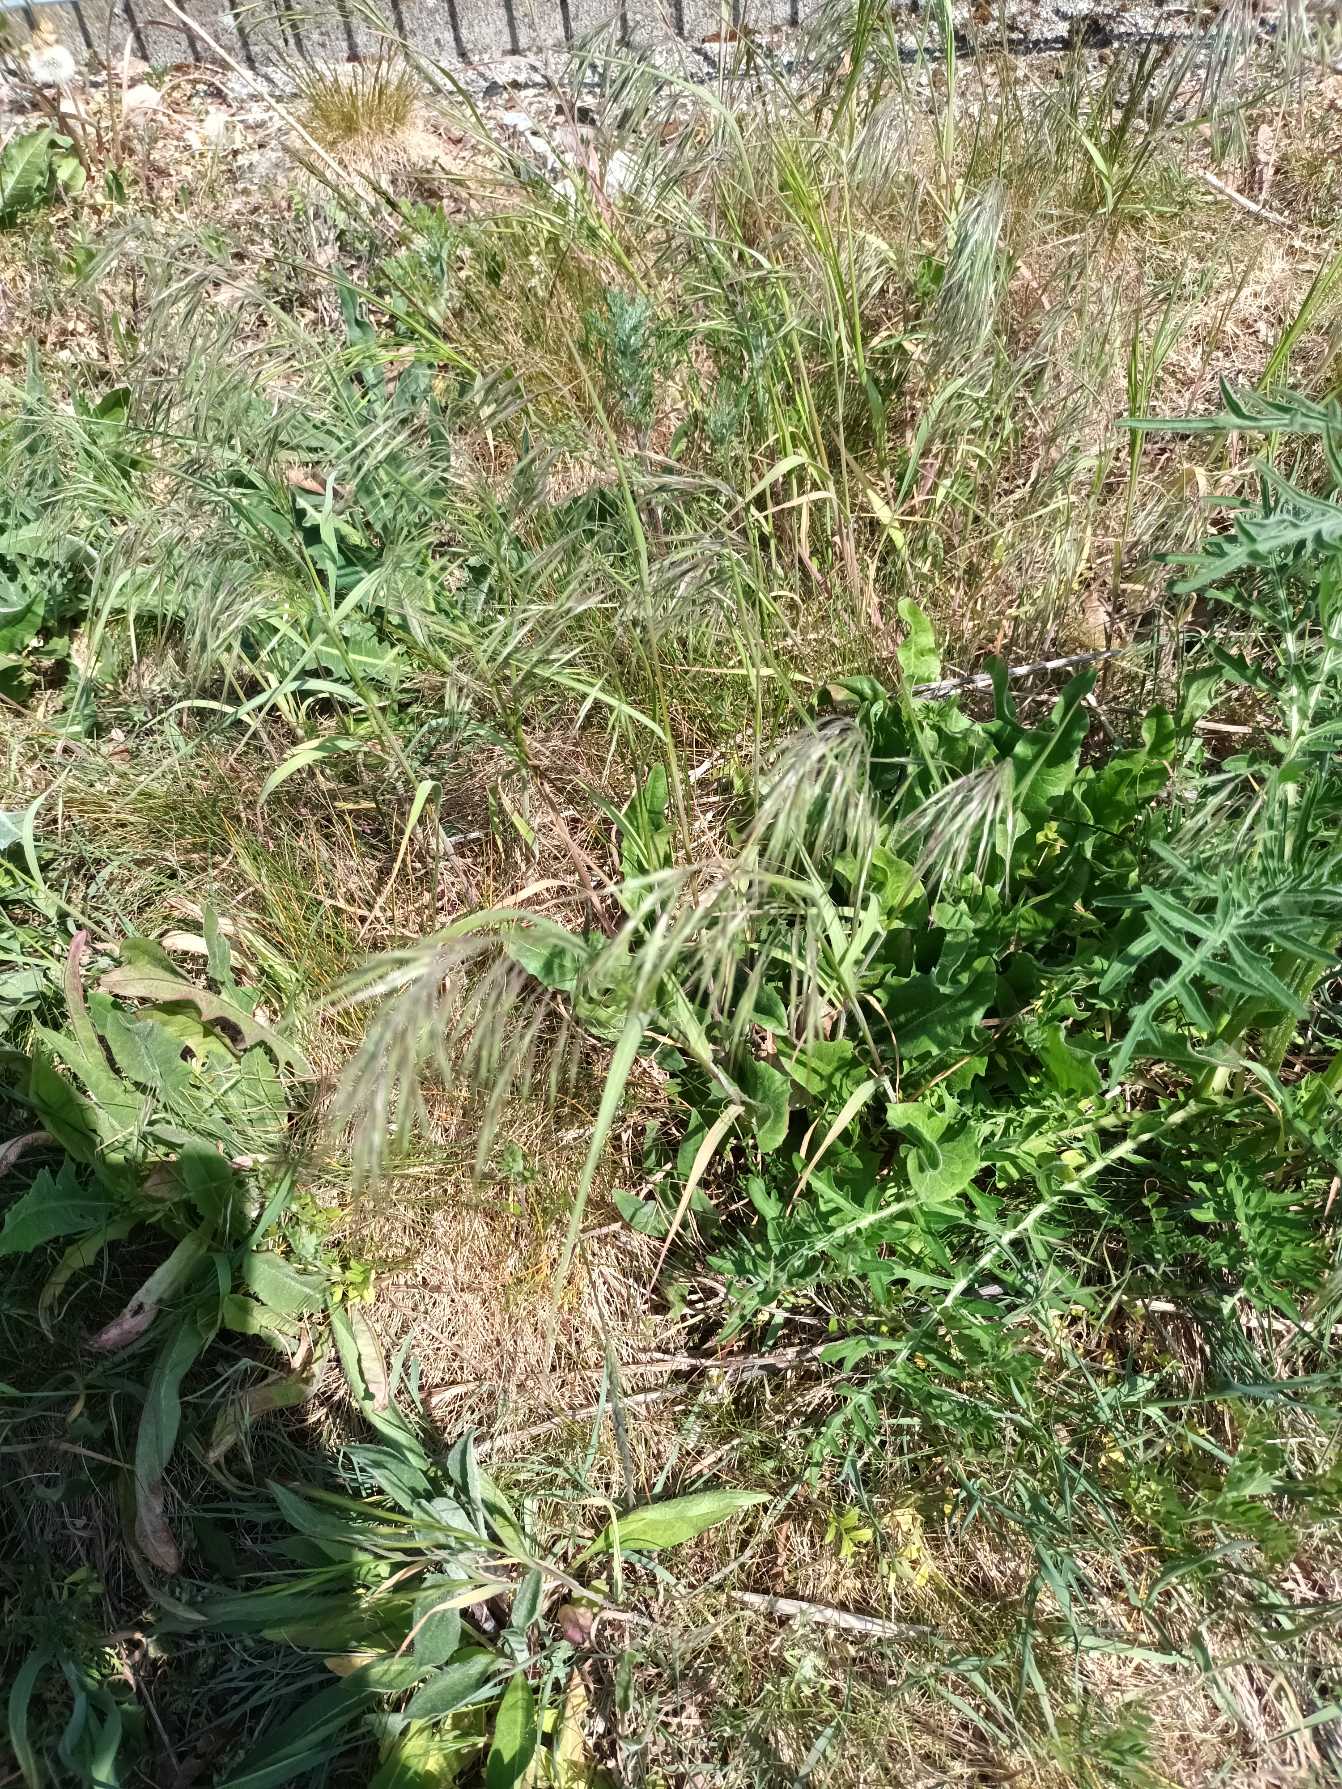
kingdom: Plantae
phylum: Tracheophyta
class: Liliopsida
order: Poales
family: Poaceae
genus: Bromus
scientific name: Bromus tectorum
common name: Tag-hejre
